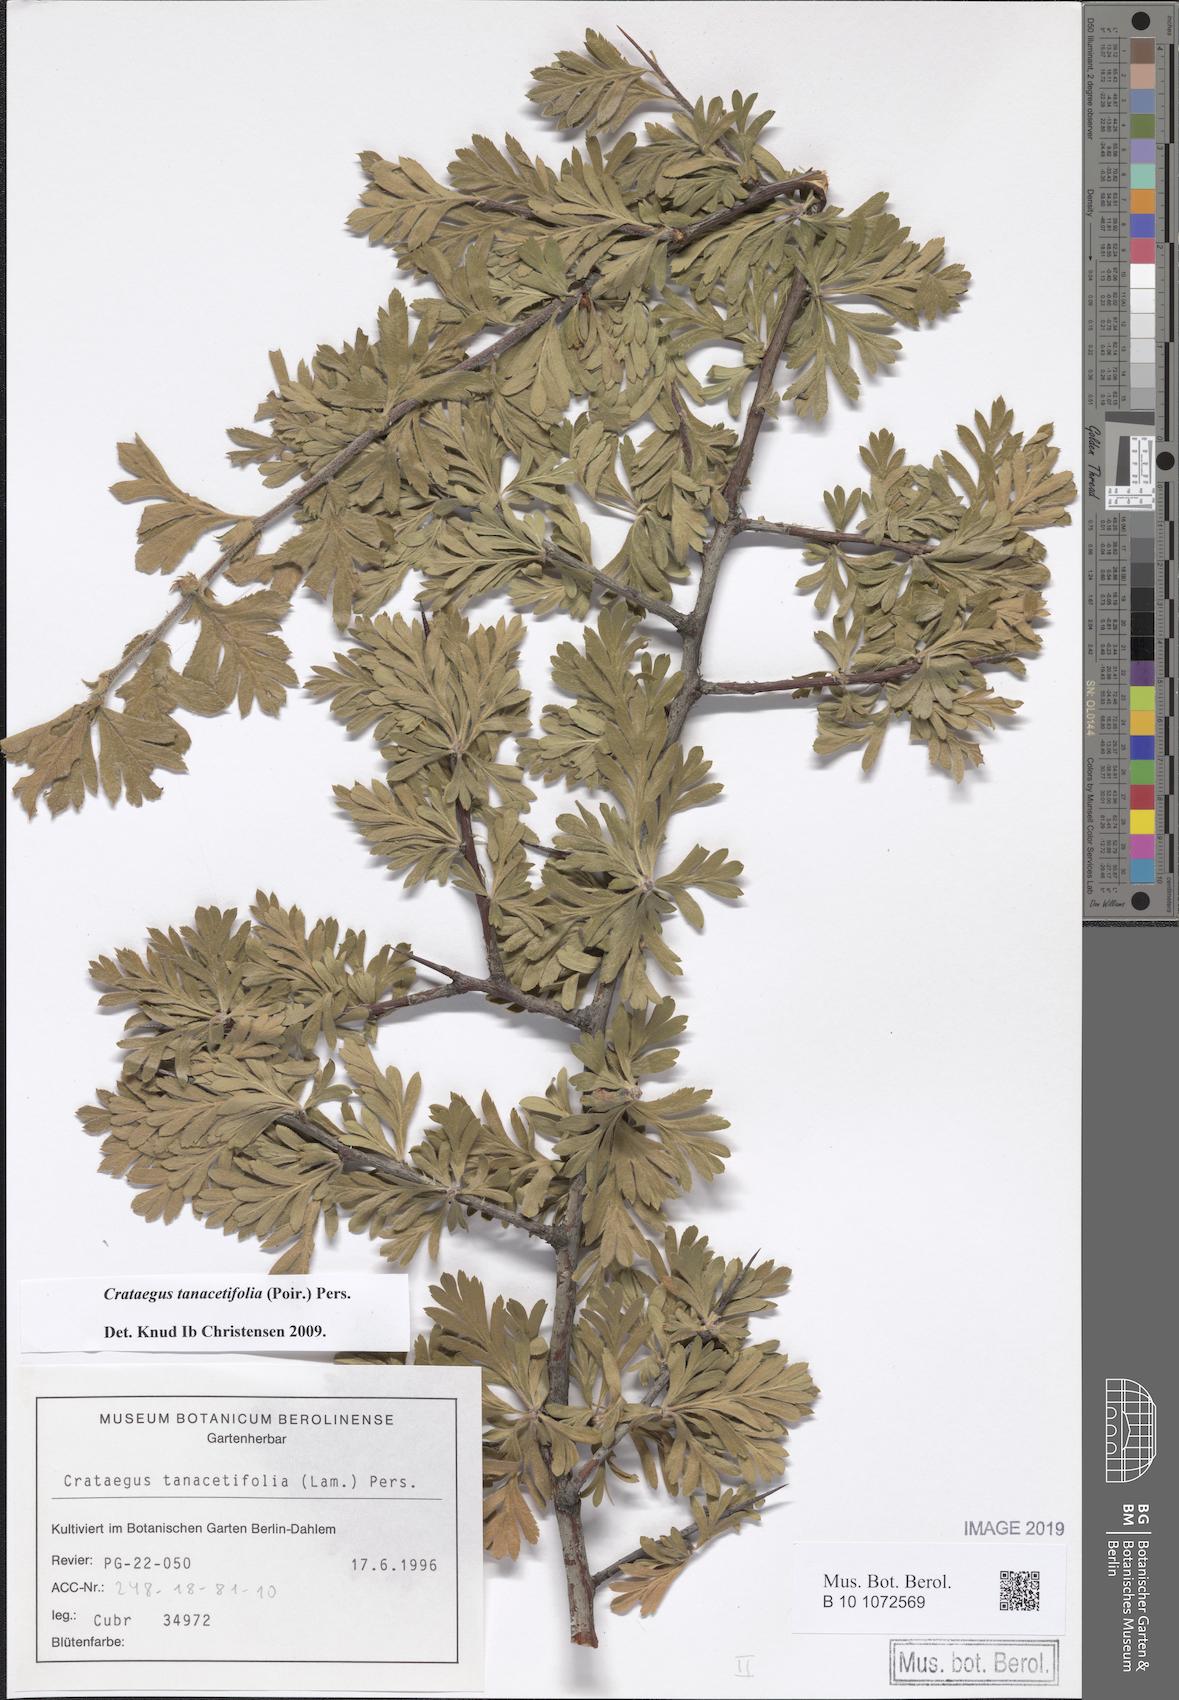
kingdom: Plantae
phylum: Tracheophyta
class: Magnoliopsida
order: Rosales
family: Rosaceae
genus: Crataegus
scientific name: Crataegus tanacetifolia
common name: Tansy-leaved thorn
